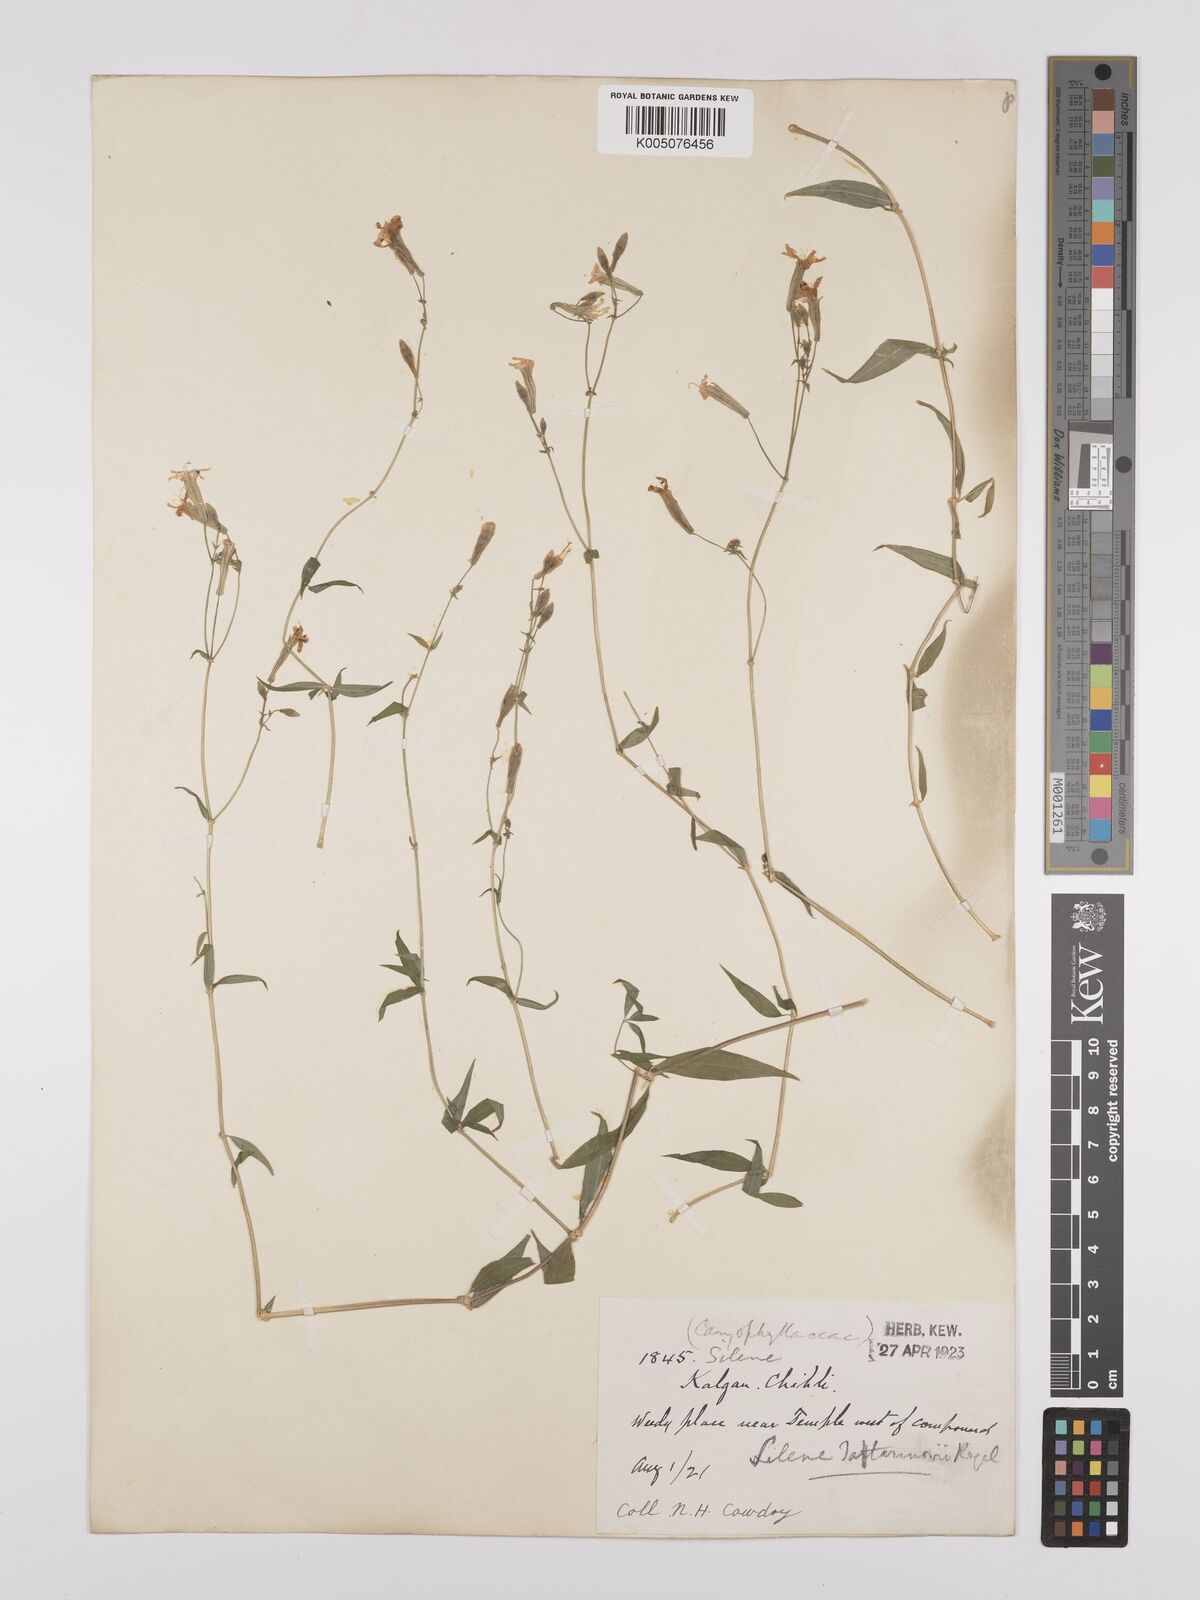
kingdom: Plantae
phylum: Tracheophyta
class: Magnoliopsida
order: Caryophyllales
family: Caryophyllaceae
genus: Silene
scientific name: Silene
